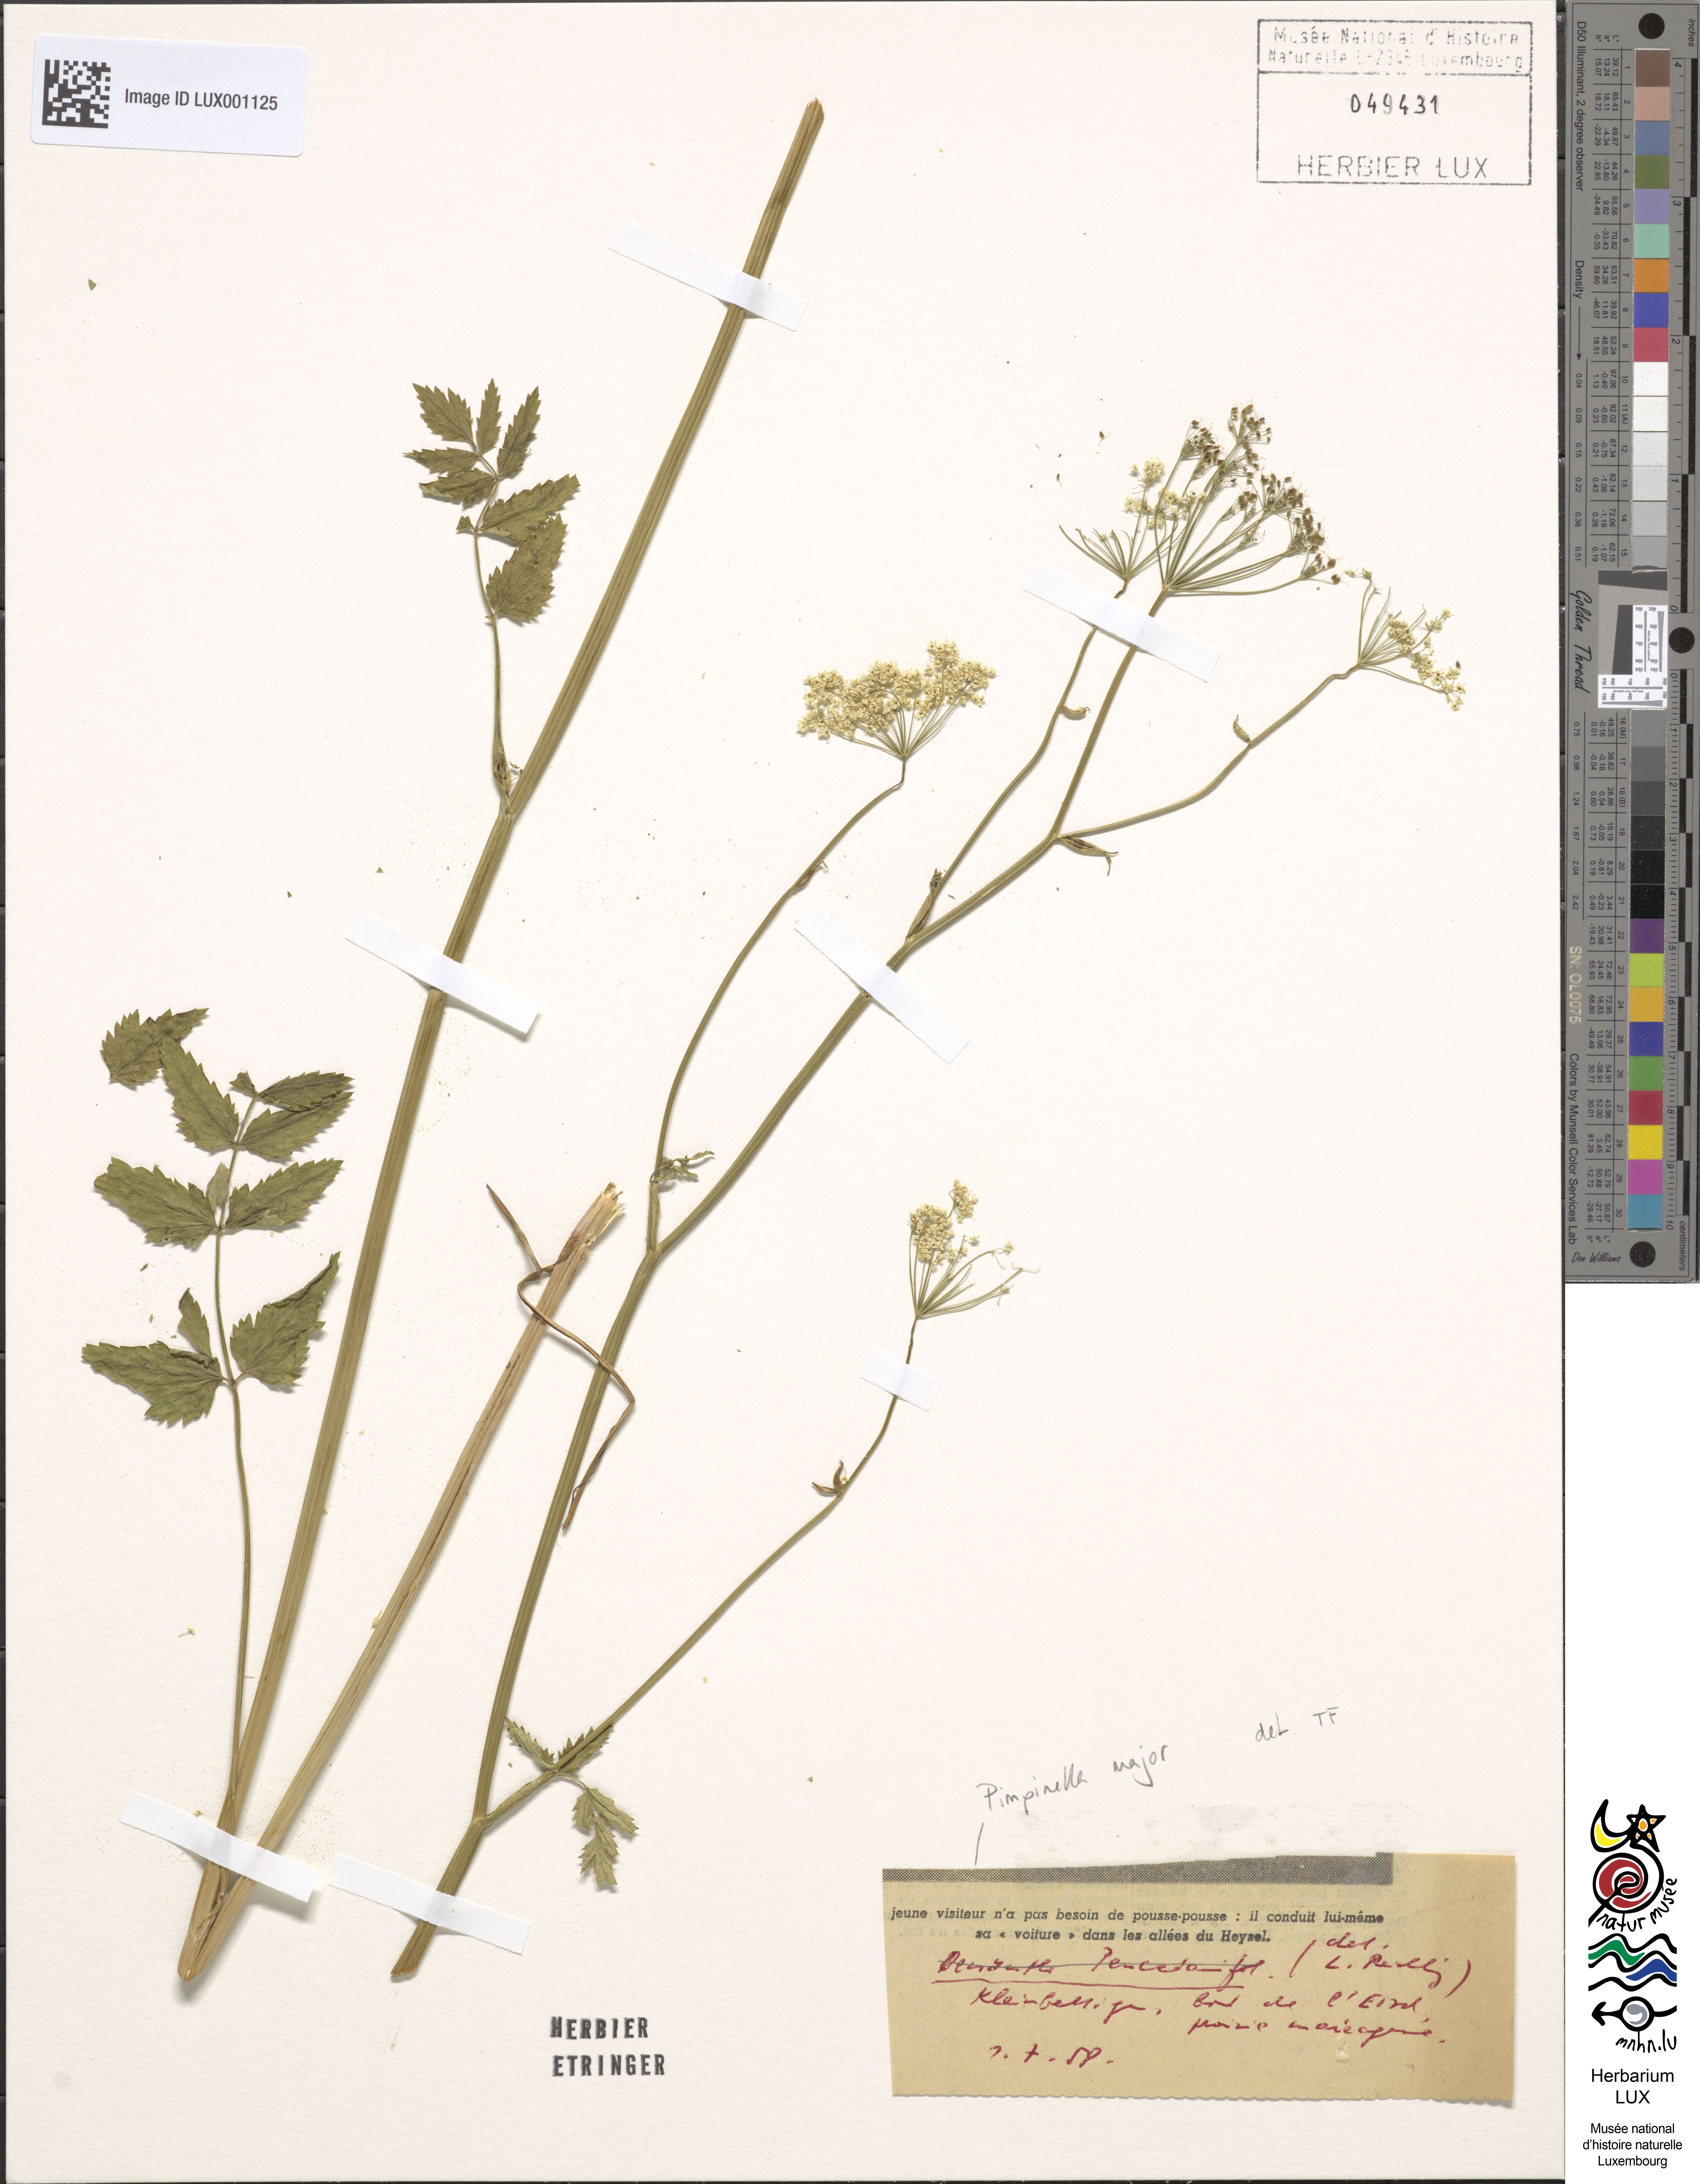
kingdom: Plantae
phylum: Tracheophyta
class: Magnoliopsida
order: Apiales
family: Apiaceae
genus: Pimpinella
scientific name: Pimpinella major
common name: Greater burnet-saxifrage
